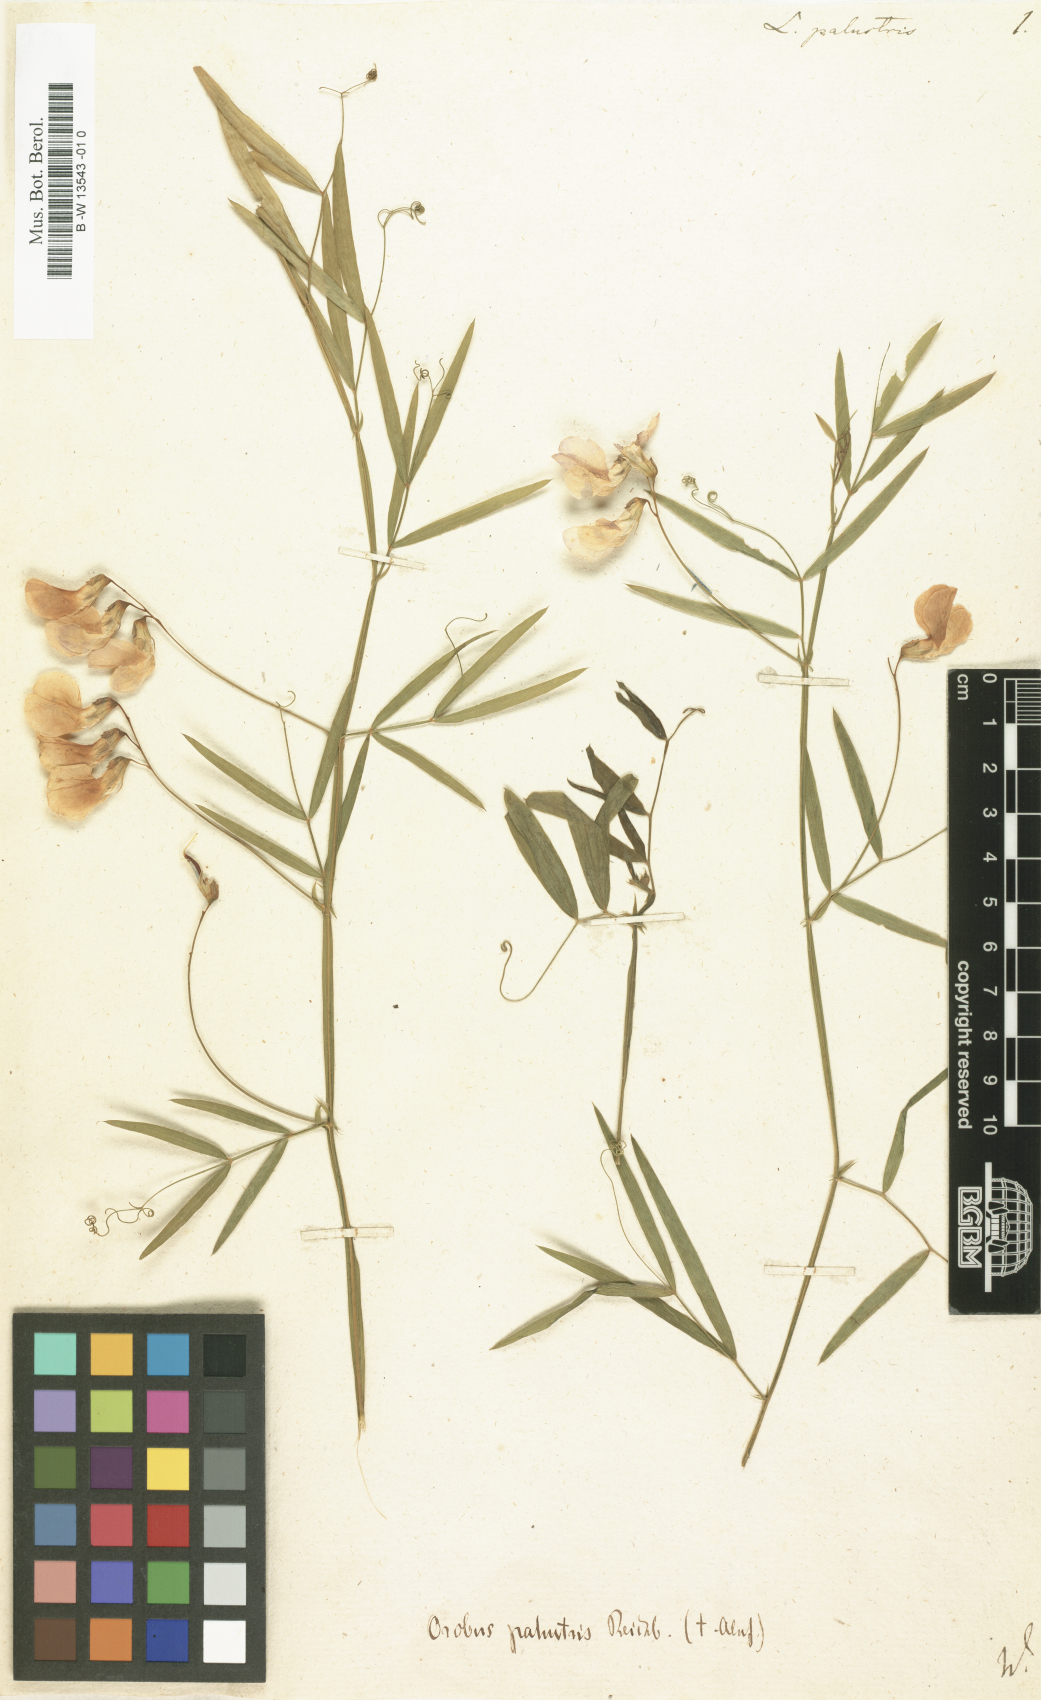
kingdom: Plantae
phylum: Tracheophyta
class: Magnoliopsida
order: Fabales
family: Fabaceae
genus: Lathyrus
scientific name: Lathyrus palustris
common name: Marsh pea
